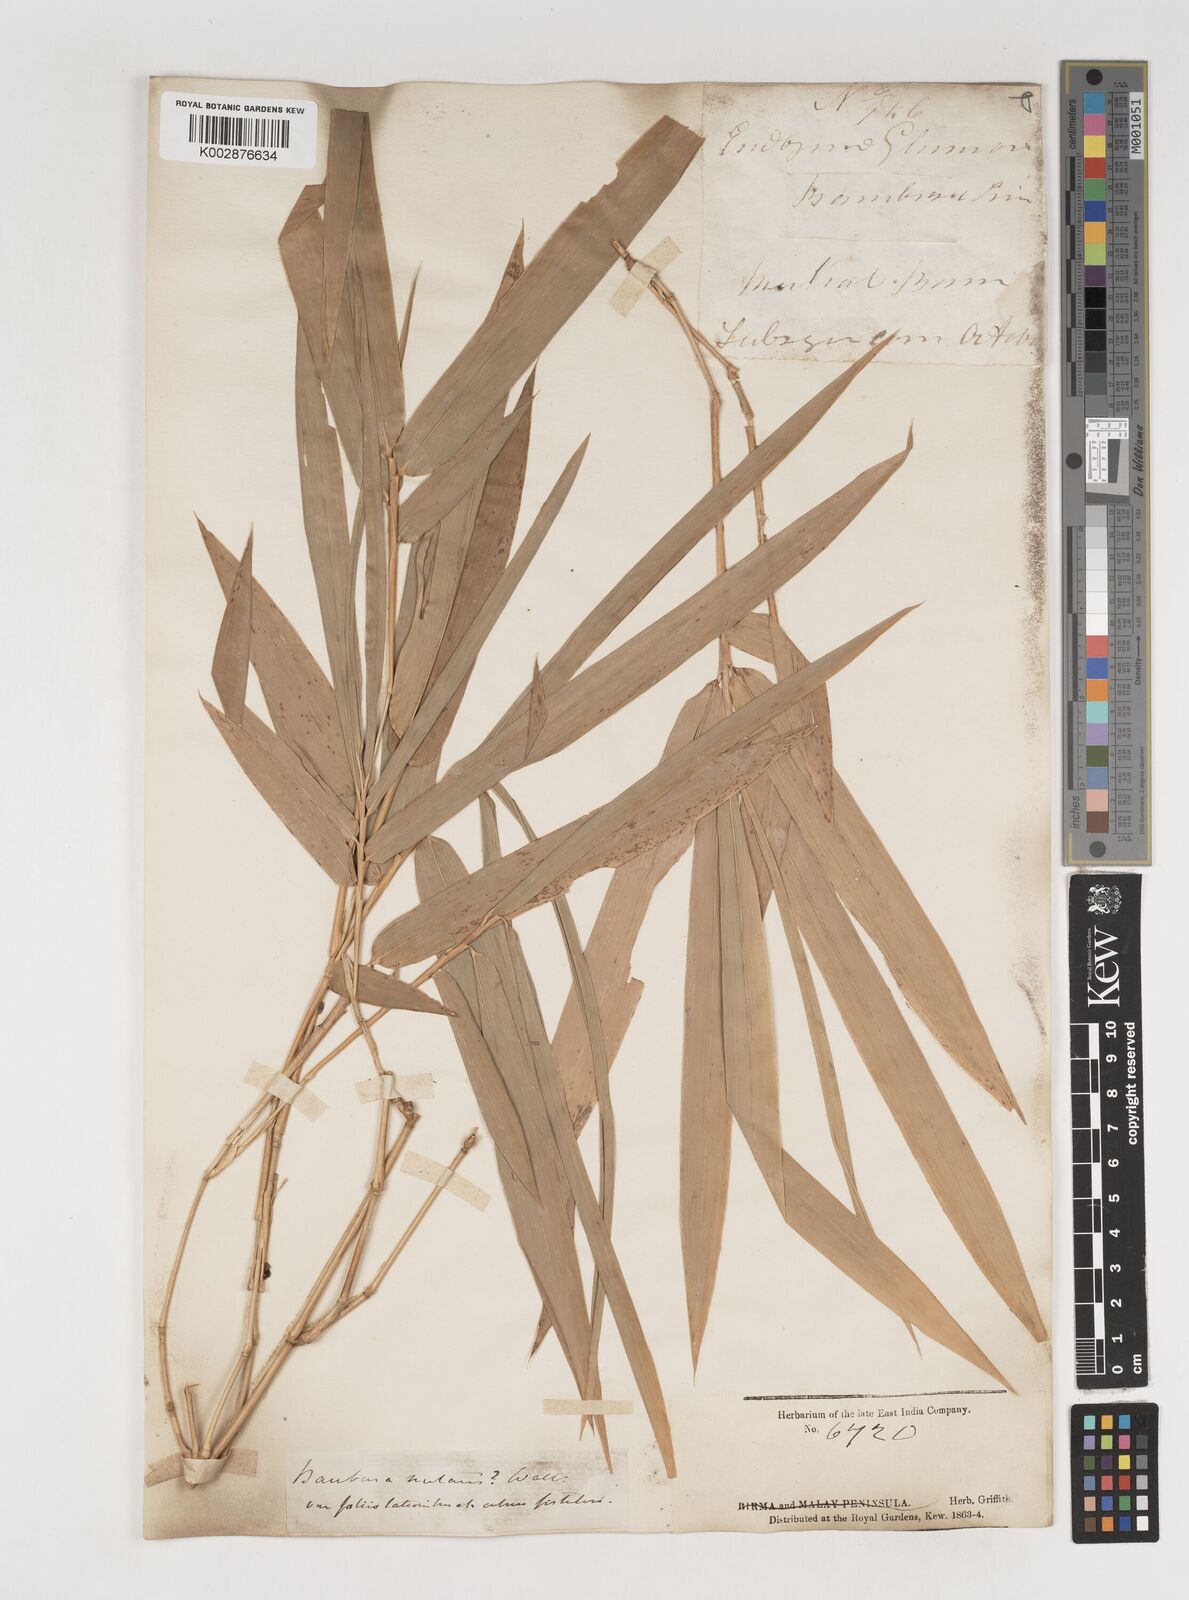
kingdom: Plantae
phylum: Tracheophyta
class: Liliopsida
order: Poales
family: Poaceae
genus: Bambusa
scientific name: Bambusa nutans
